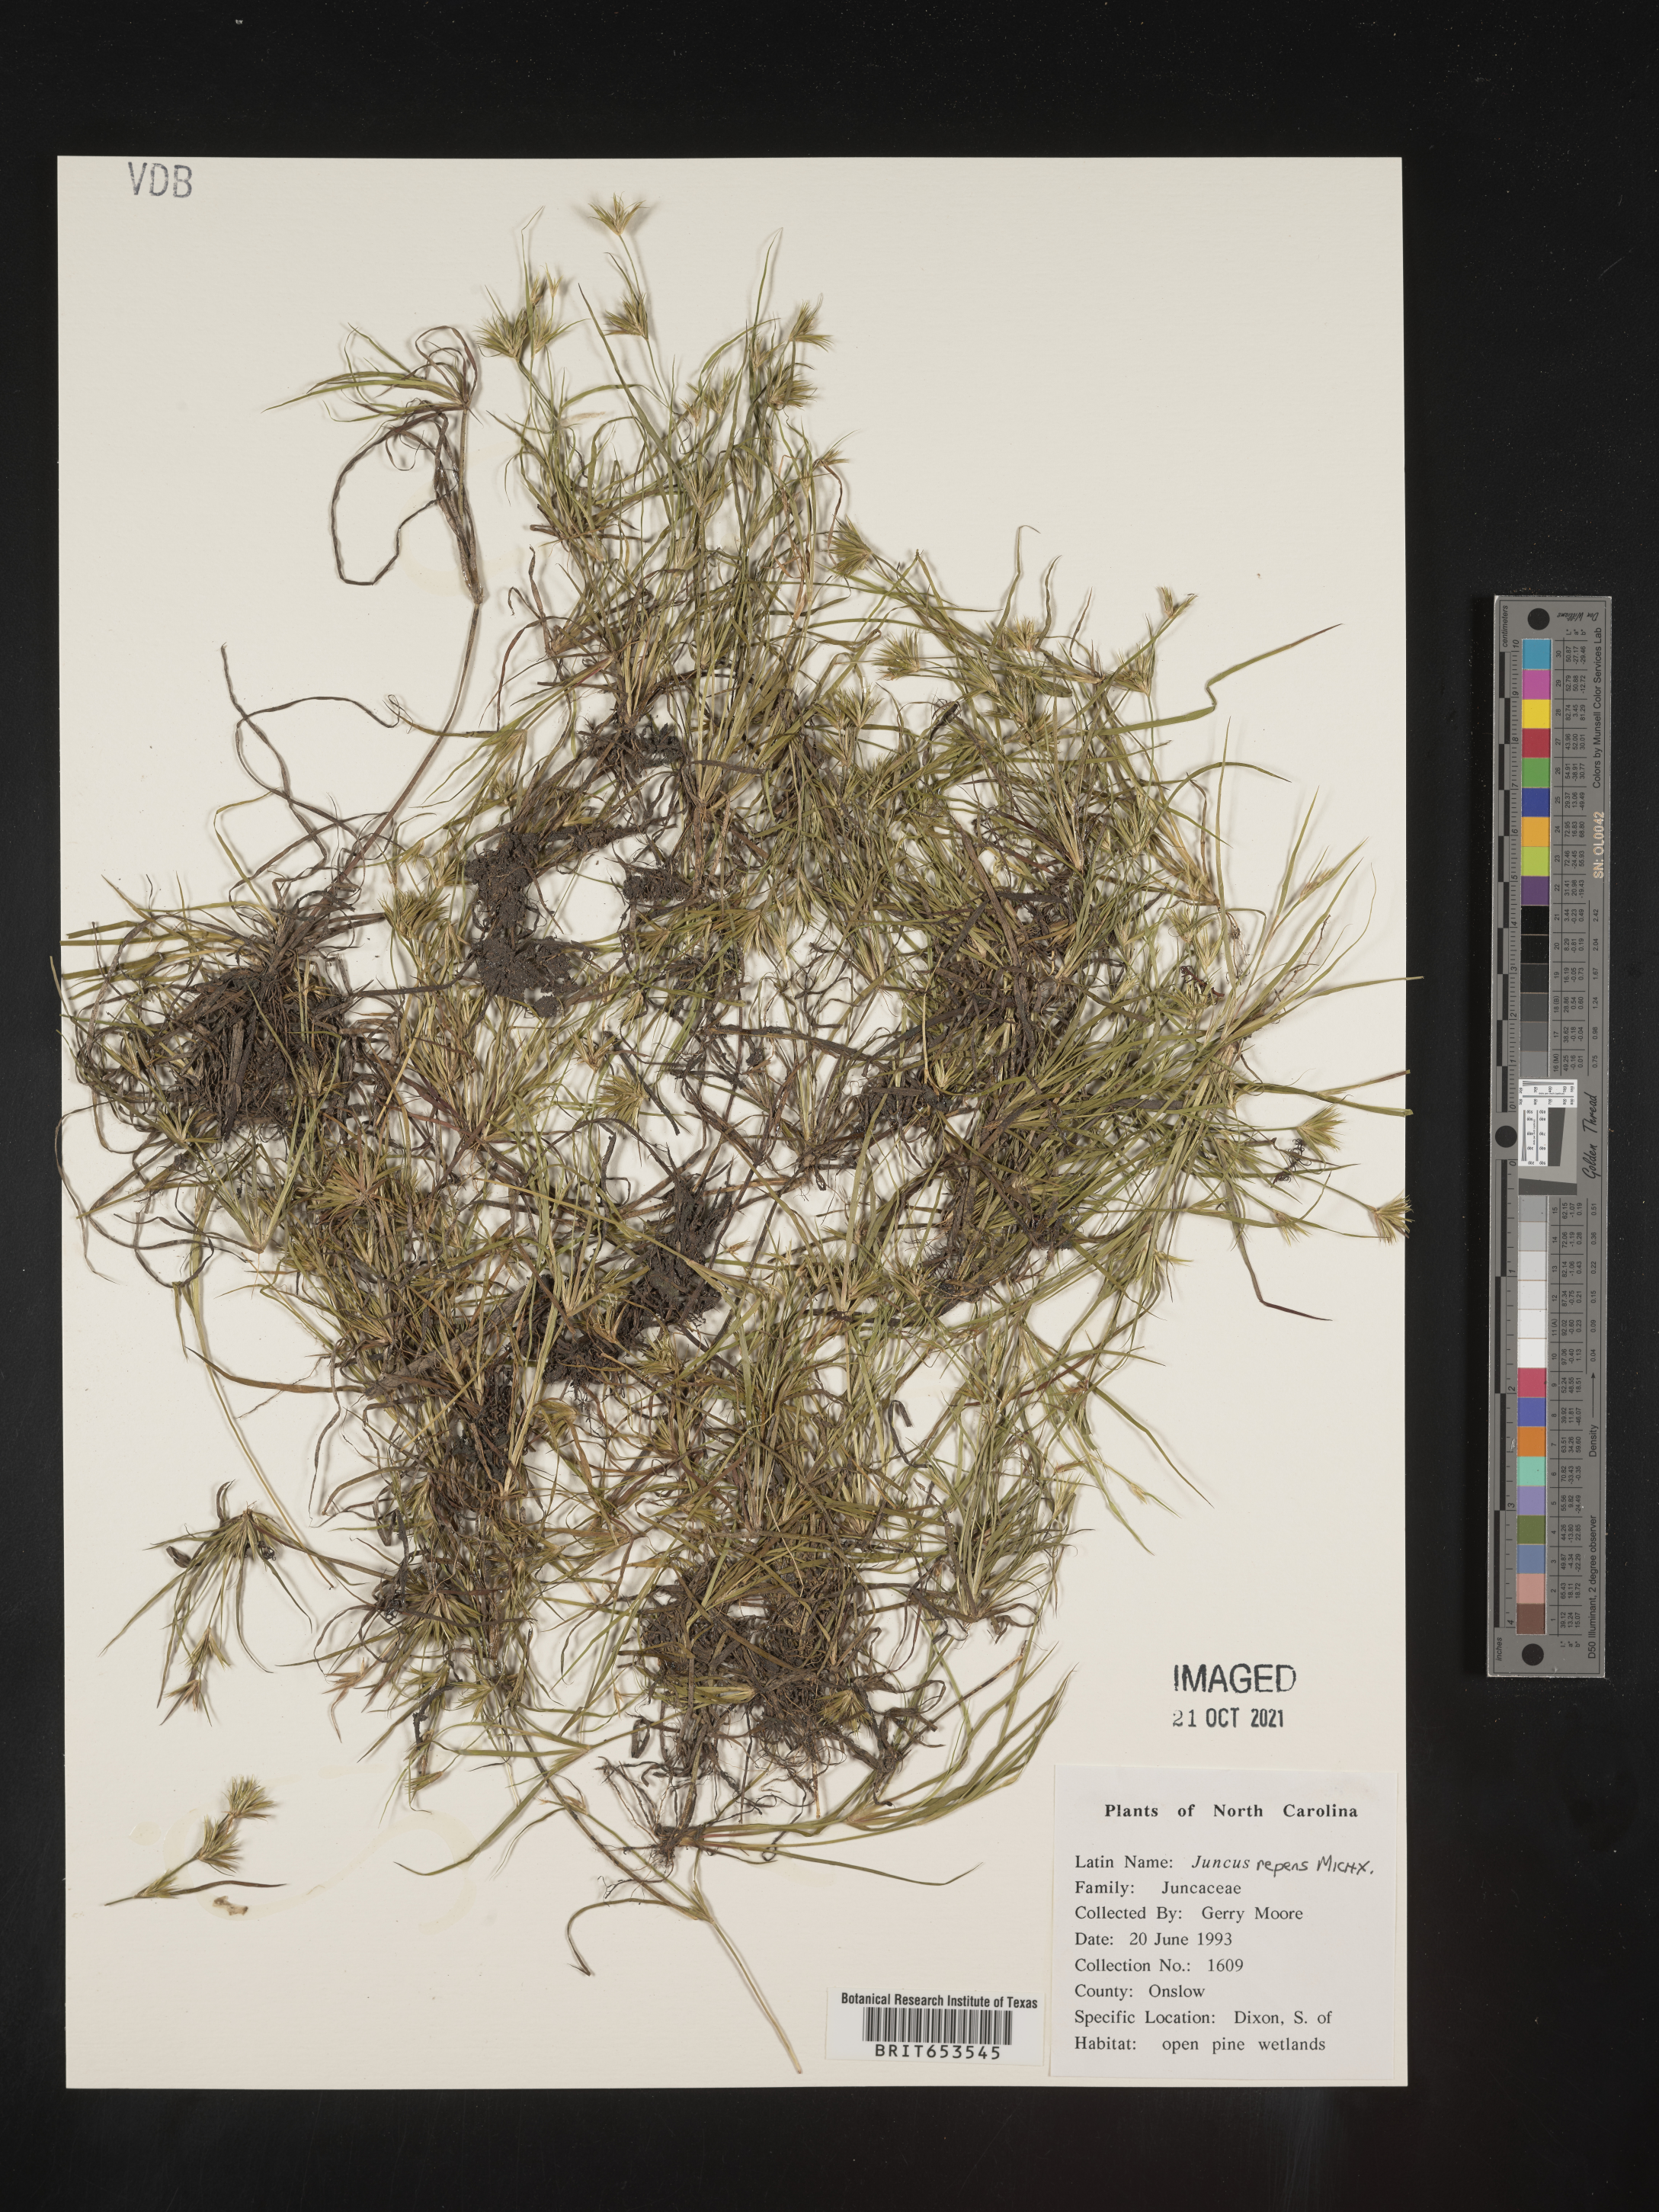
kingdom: Plantae
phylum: Tracheophyta
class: Liliopsida
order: Poales
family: Juncaceae
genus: Juncus
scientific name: Juncus repens
